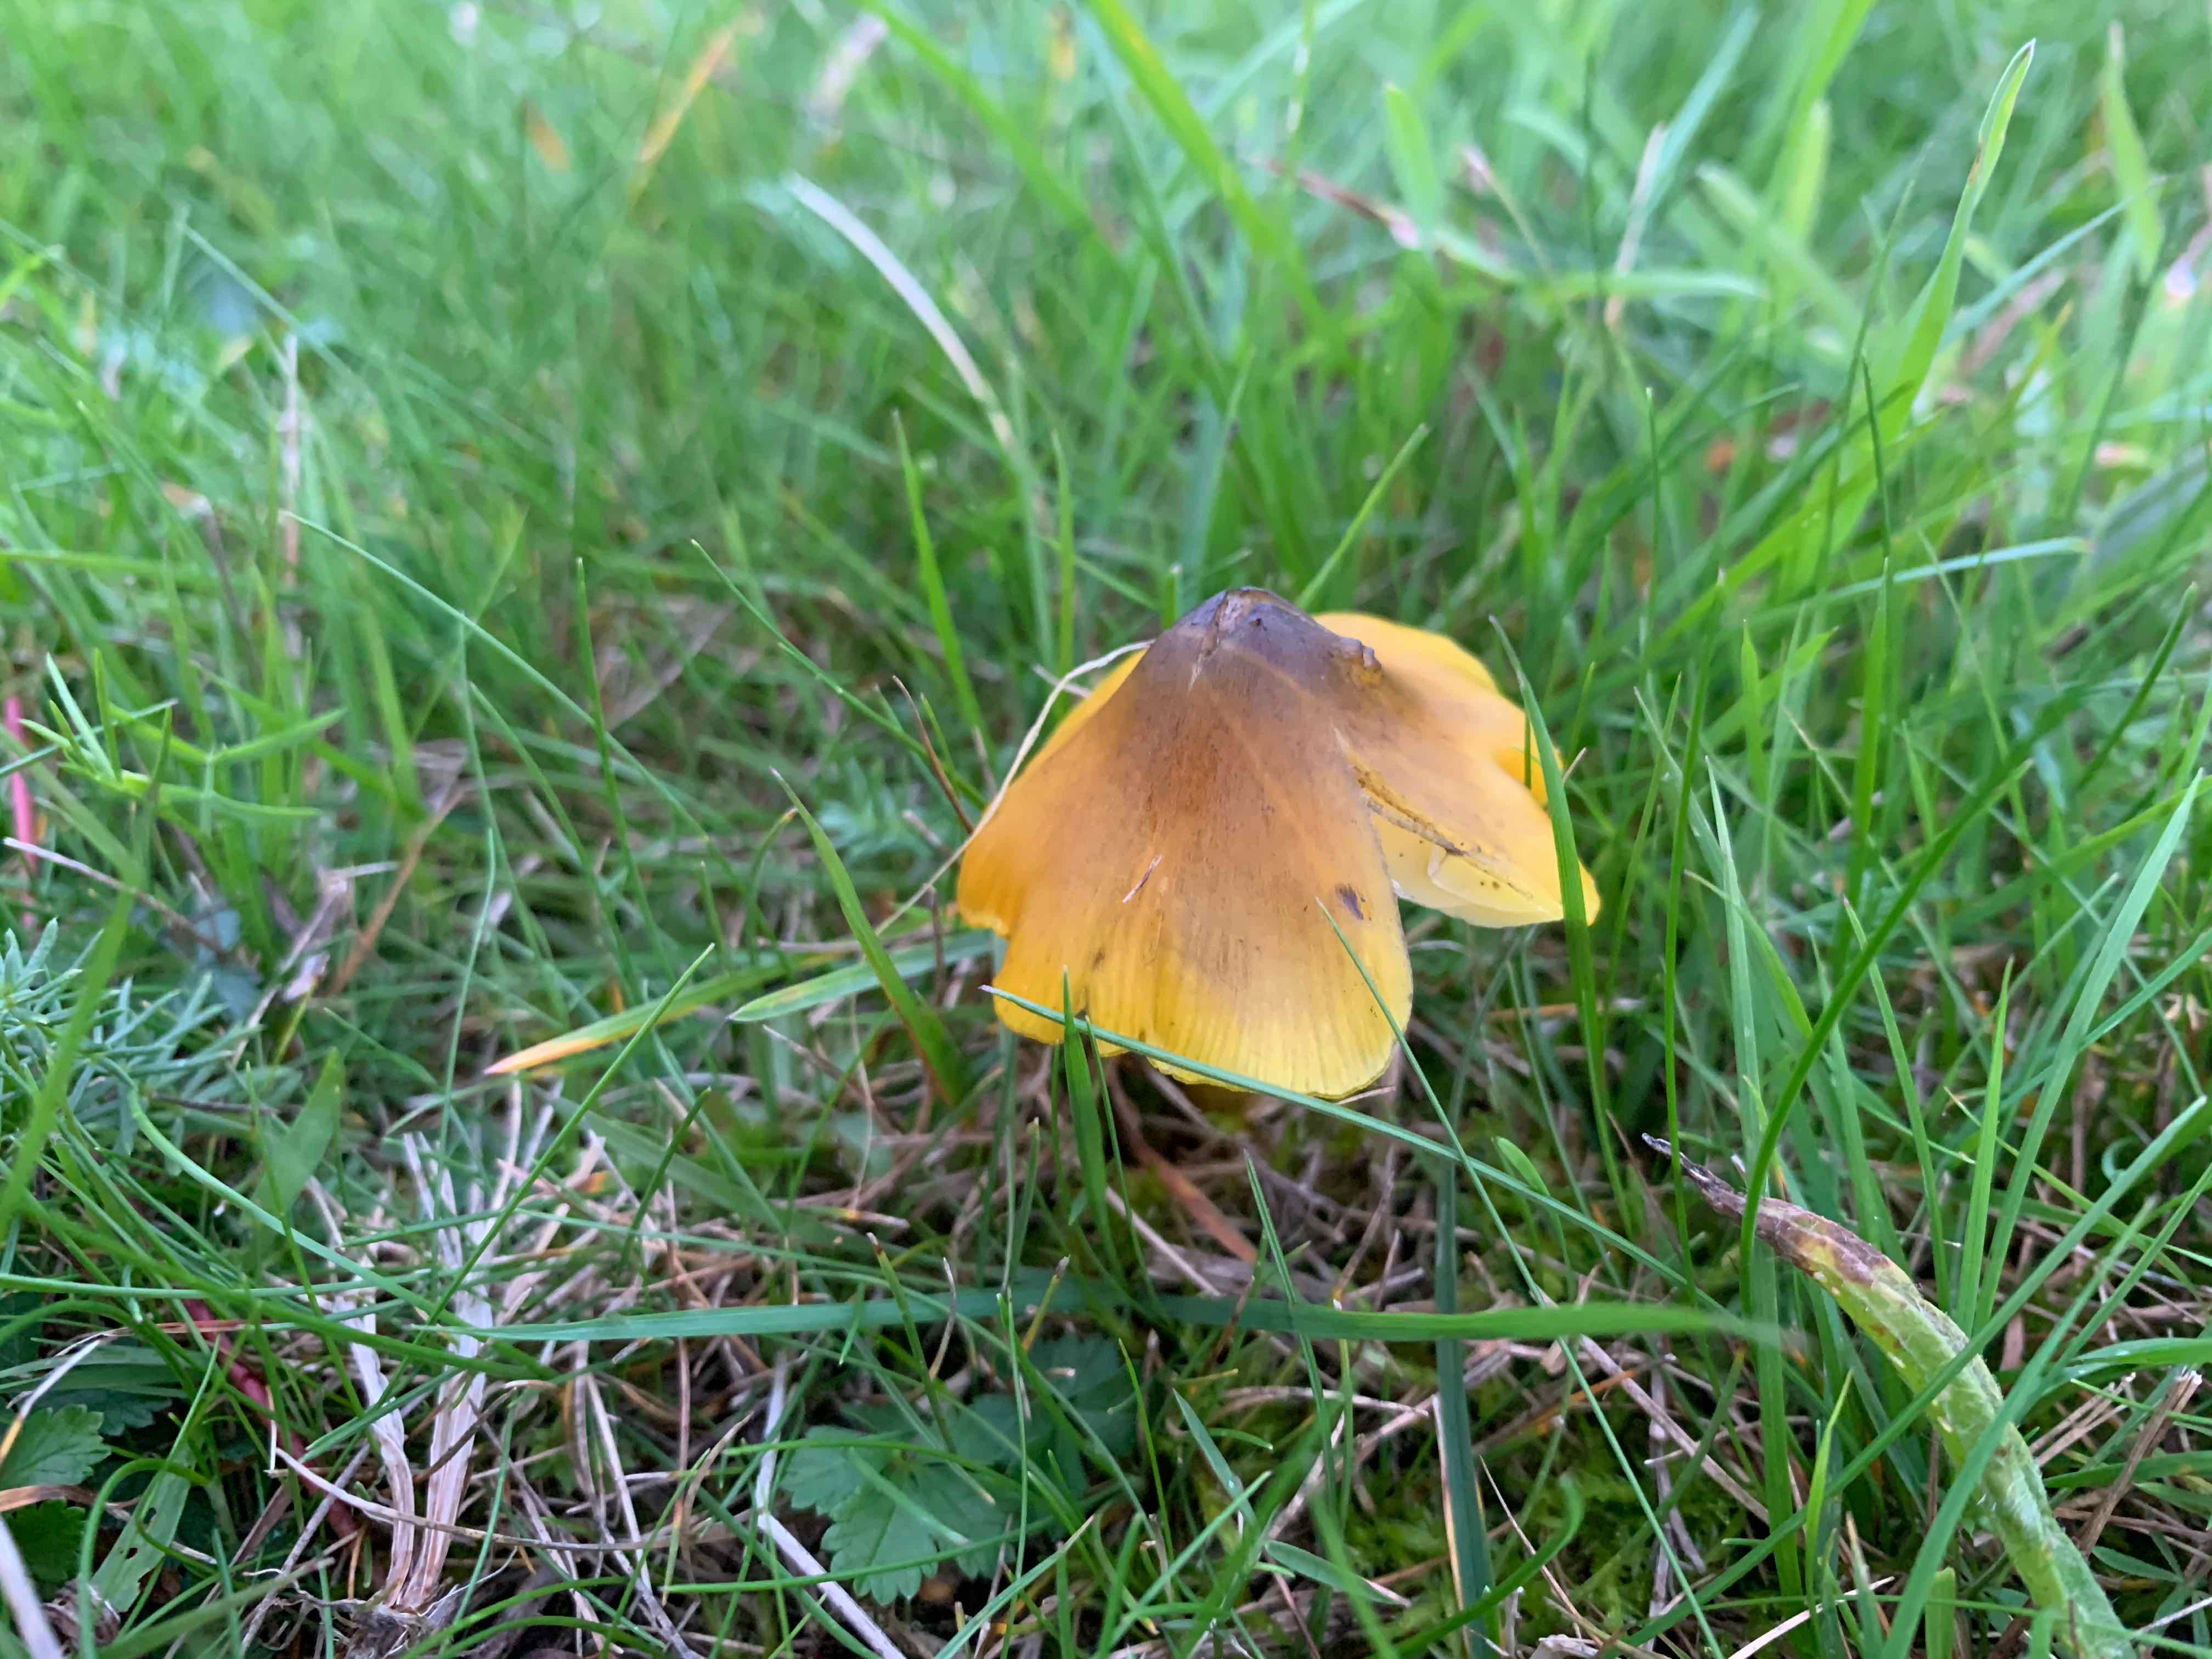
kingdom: Fungi
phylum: Basidiomycota
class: Agaricomycetes
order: Agaricales
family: Hygrophoraceae
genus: Hygrocybe
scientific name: Hygrocybe conica
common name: kegle-vokshat
